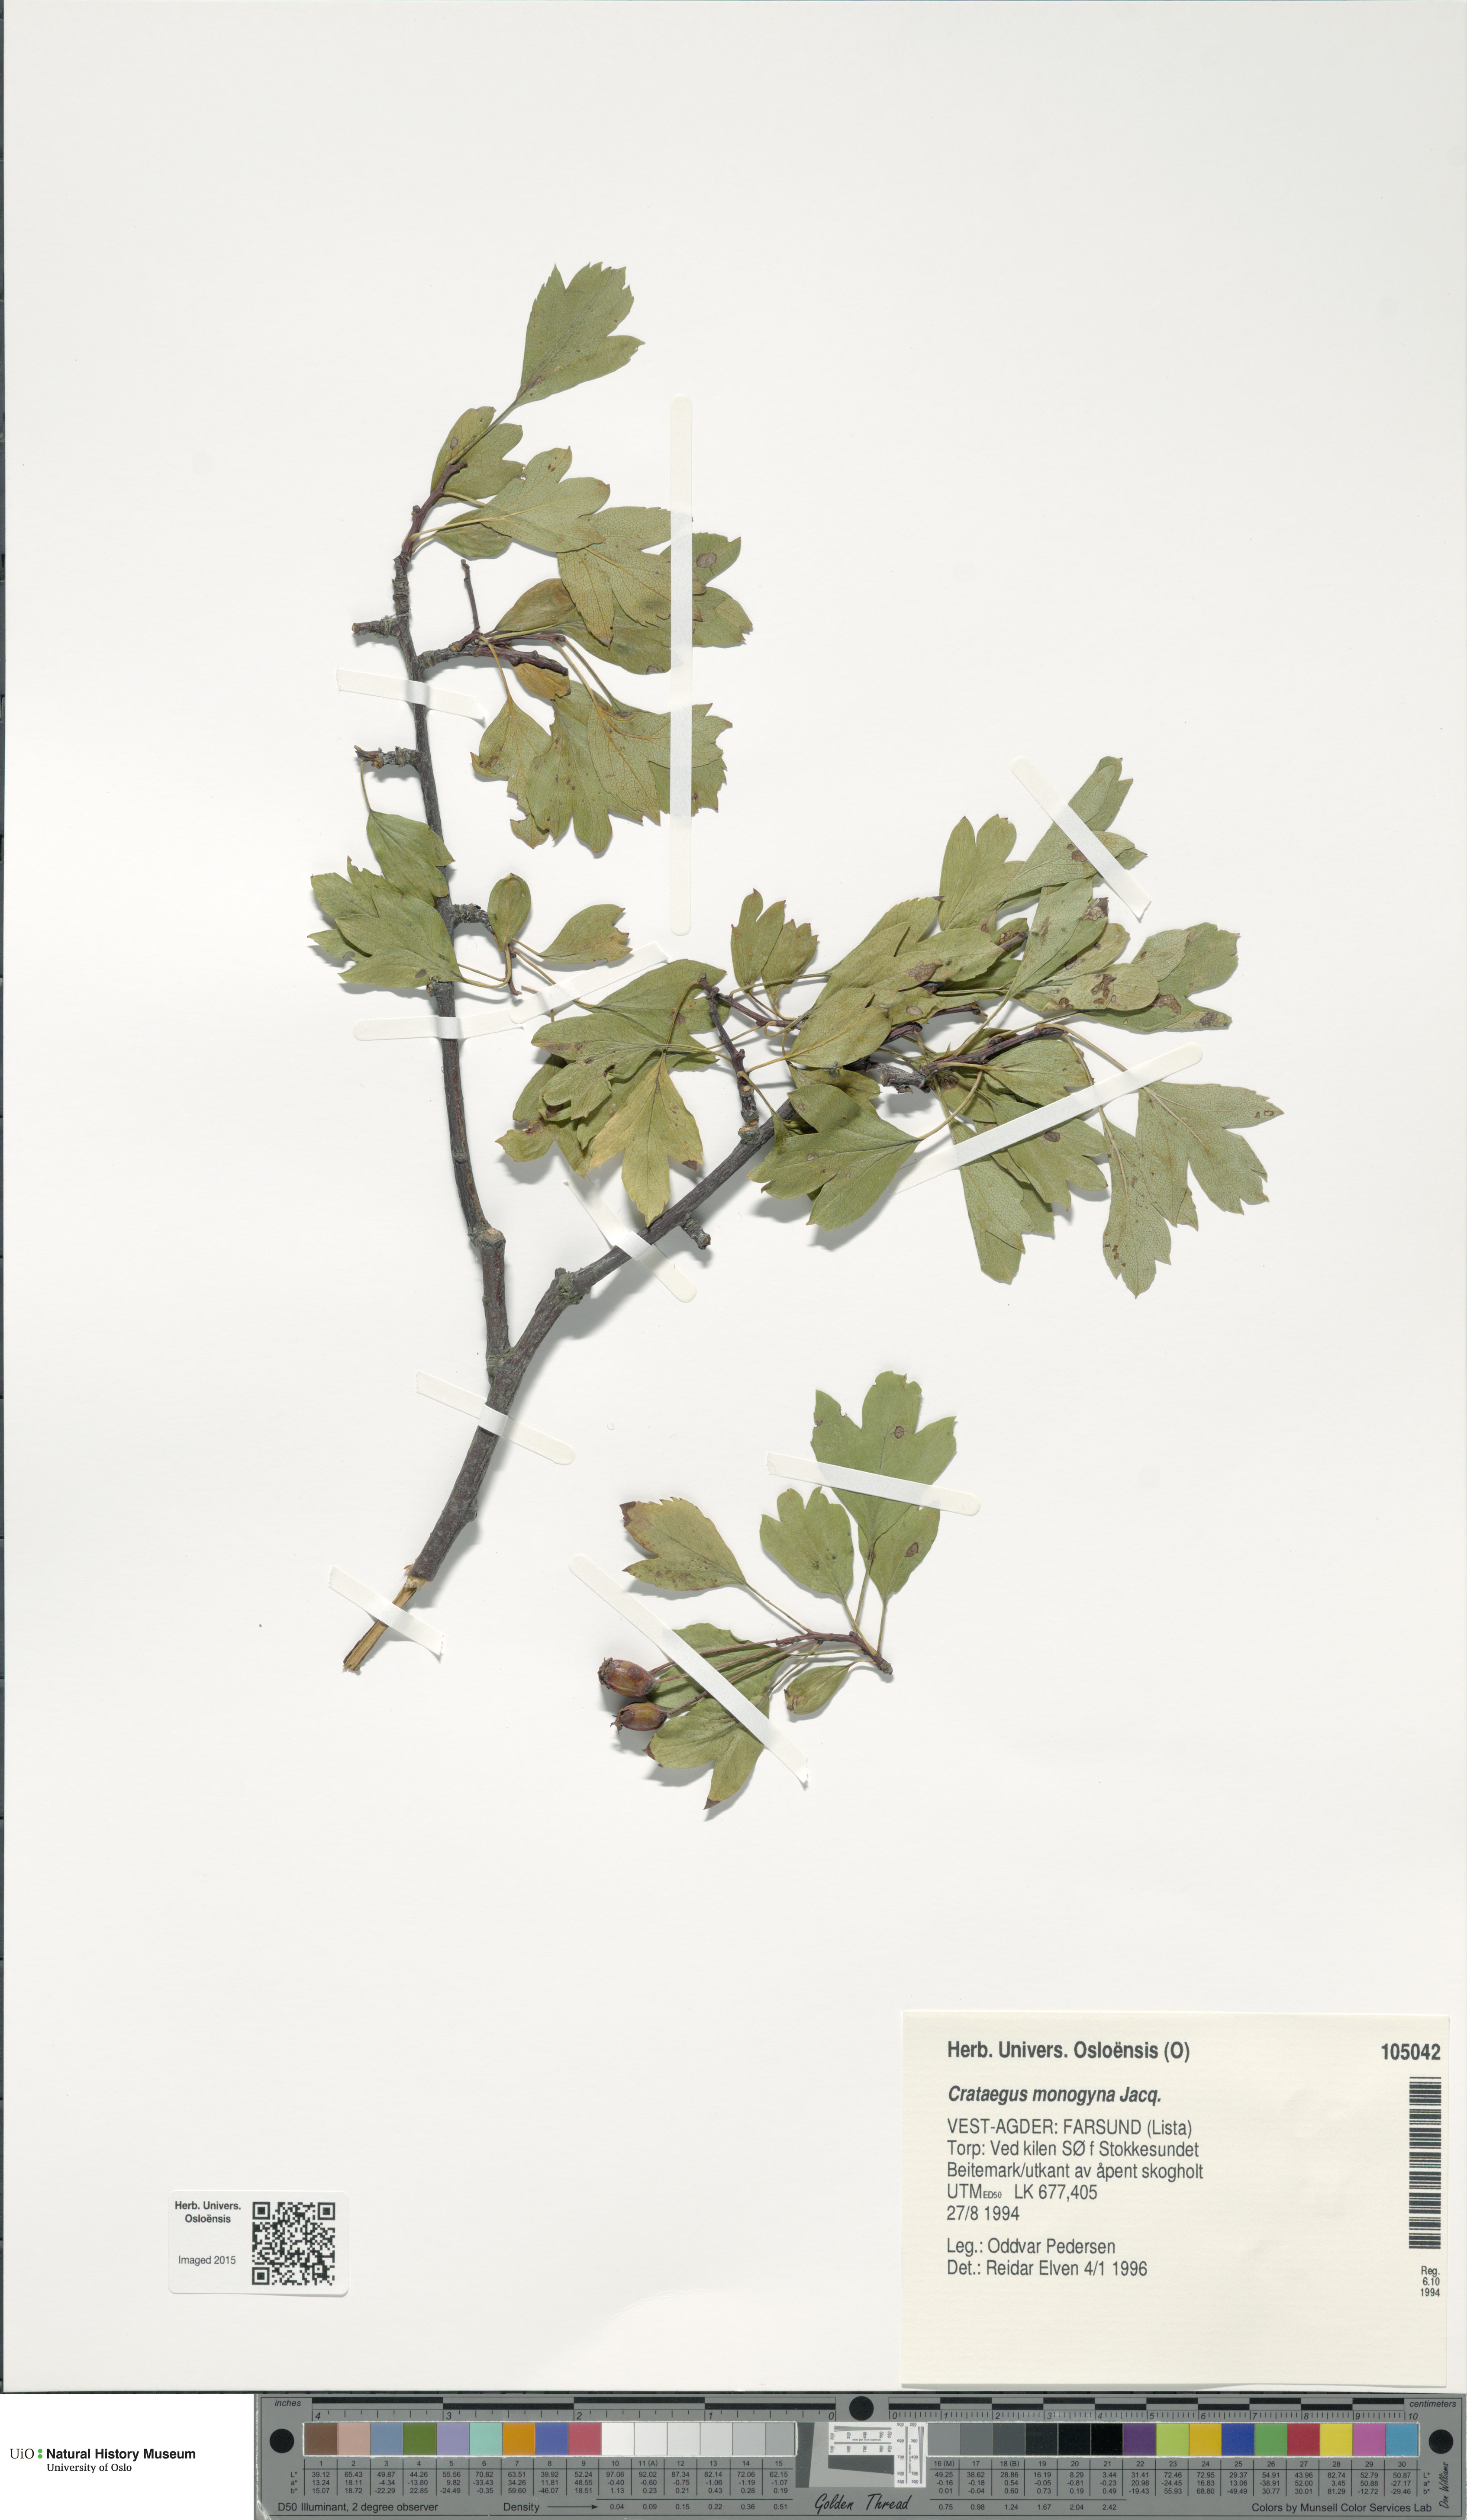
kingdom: Plantae
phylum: Tracheophyta
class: Magnoliopsida
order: Rosales
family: Rosaceae
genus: Crataegus
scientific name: Crataegus monogyna
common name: Hawthorn
